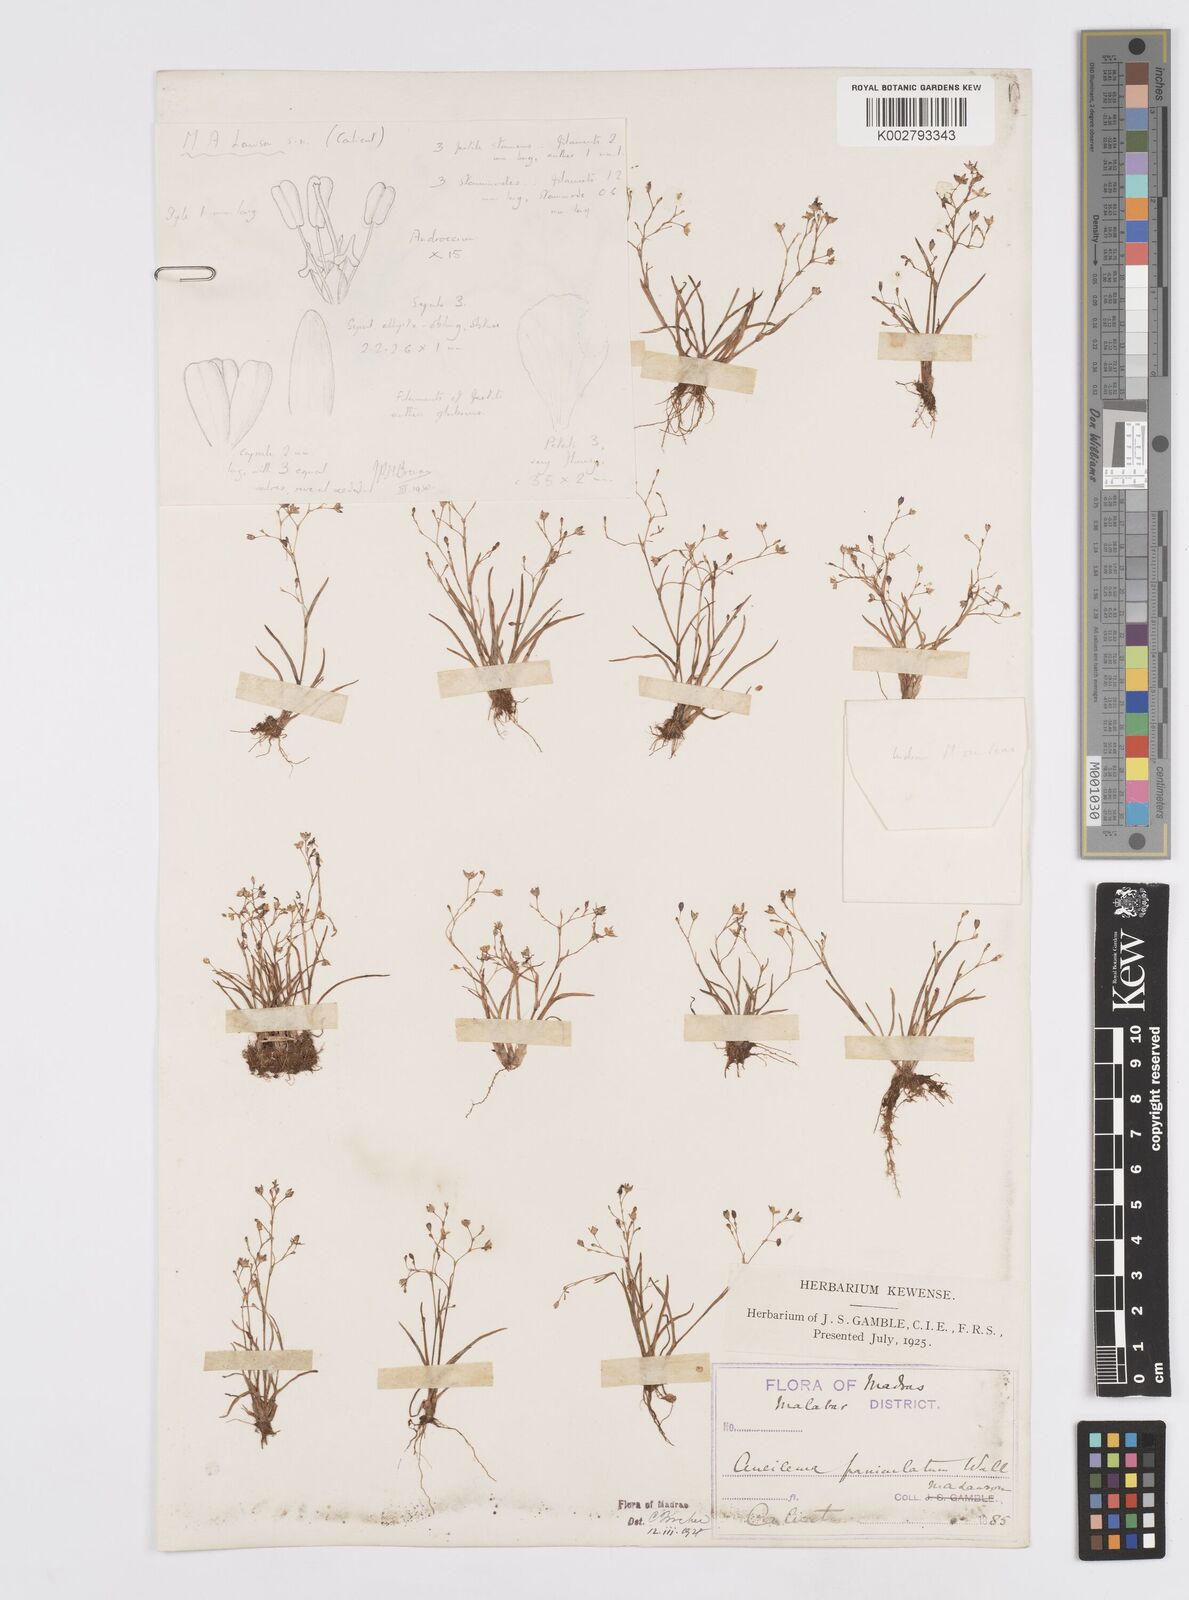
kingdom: Plantae
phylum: Tracheophyta
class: Liliopsida
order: Commelinales
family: Commelinaceae
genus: Murdannia
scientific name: Murdannia semiteres
